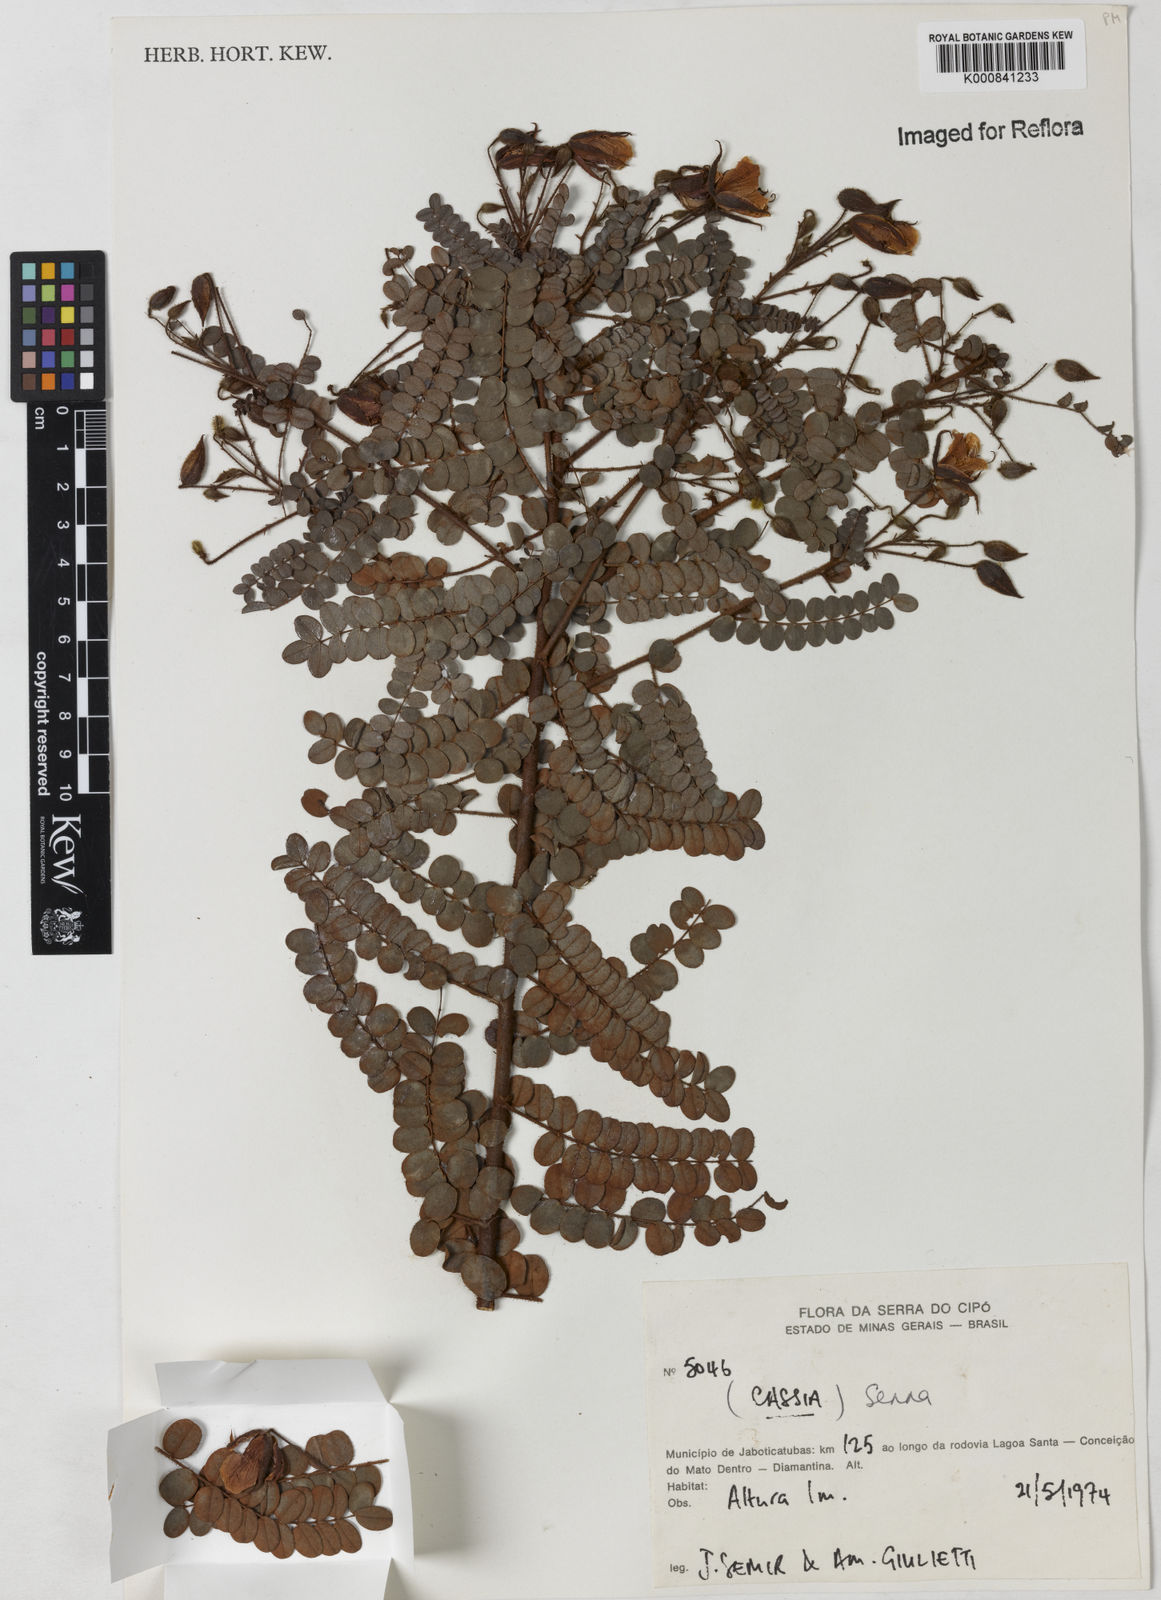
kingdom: Plantae
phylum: Tracheophyta
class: Magnoliopsida
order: Fabales
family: Fabaceae
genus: Senna
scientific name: Senna
